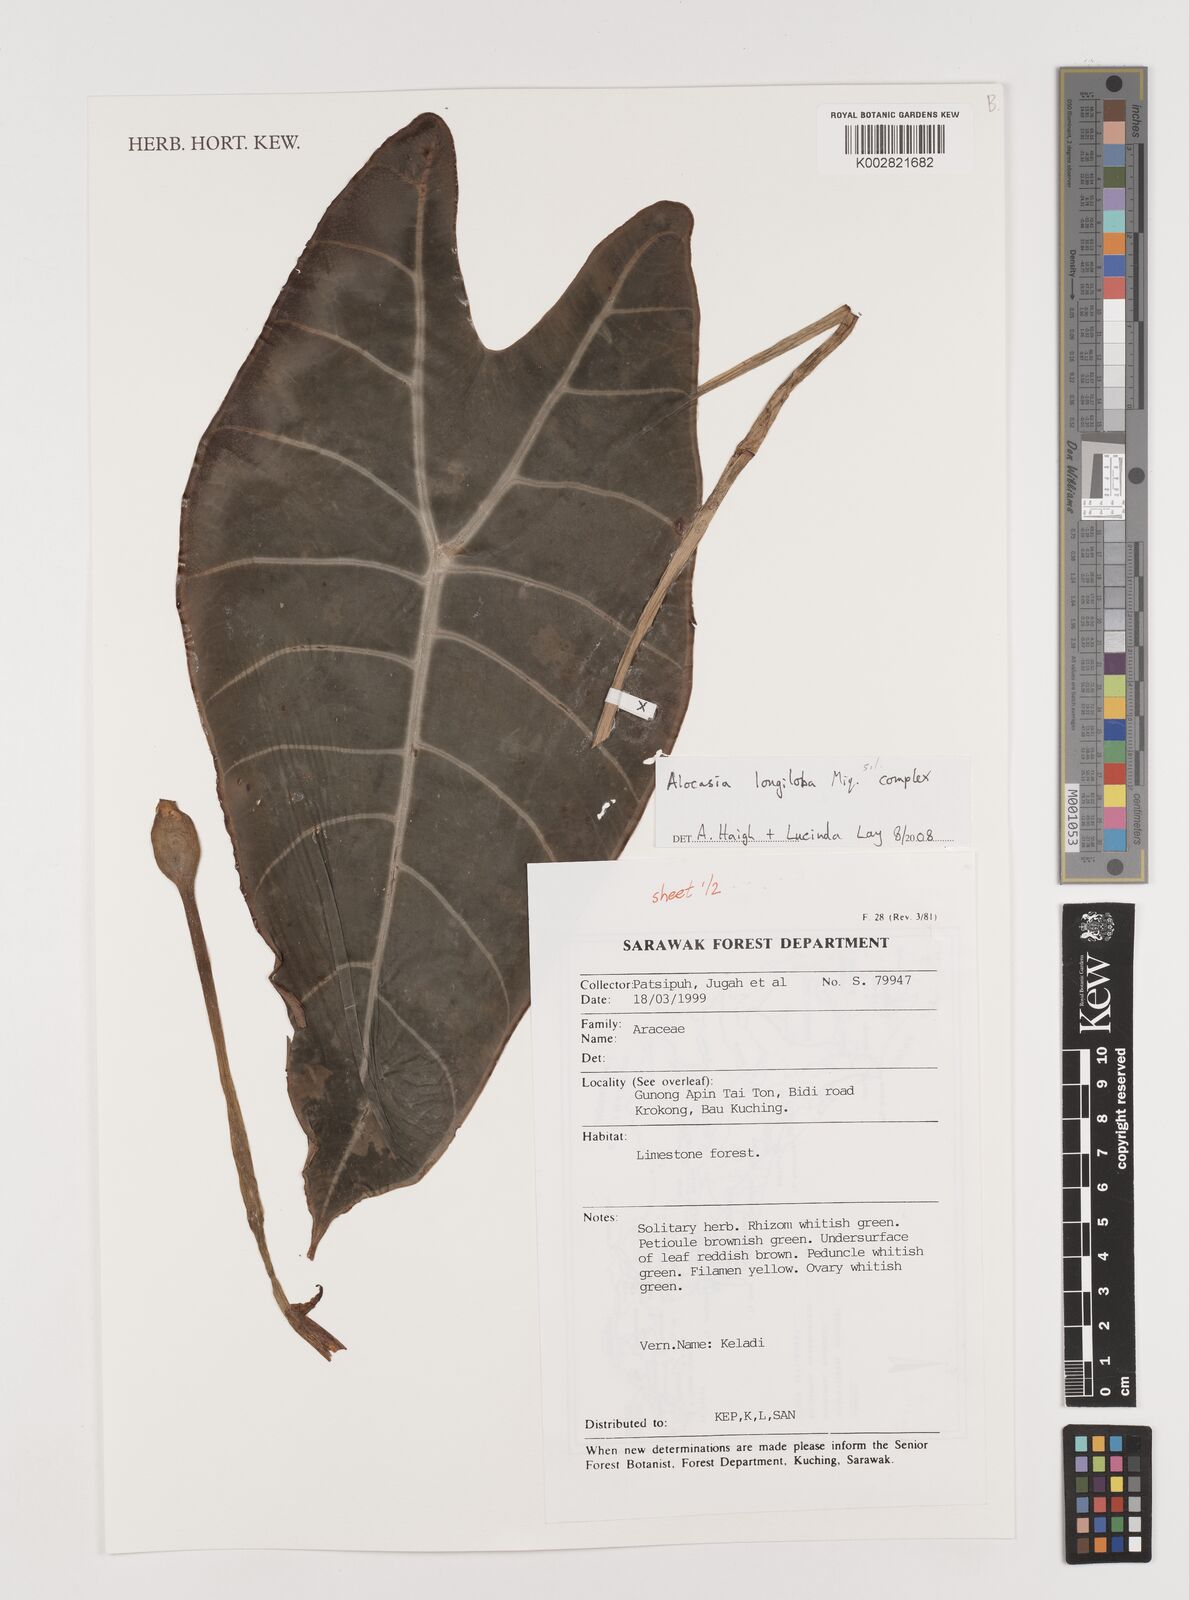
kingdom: Plantae
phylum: Tracheophyta
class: Liliopsida
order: Alismatales
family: Araceae
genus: Alocasia
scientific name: Alocasia longiloba
